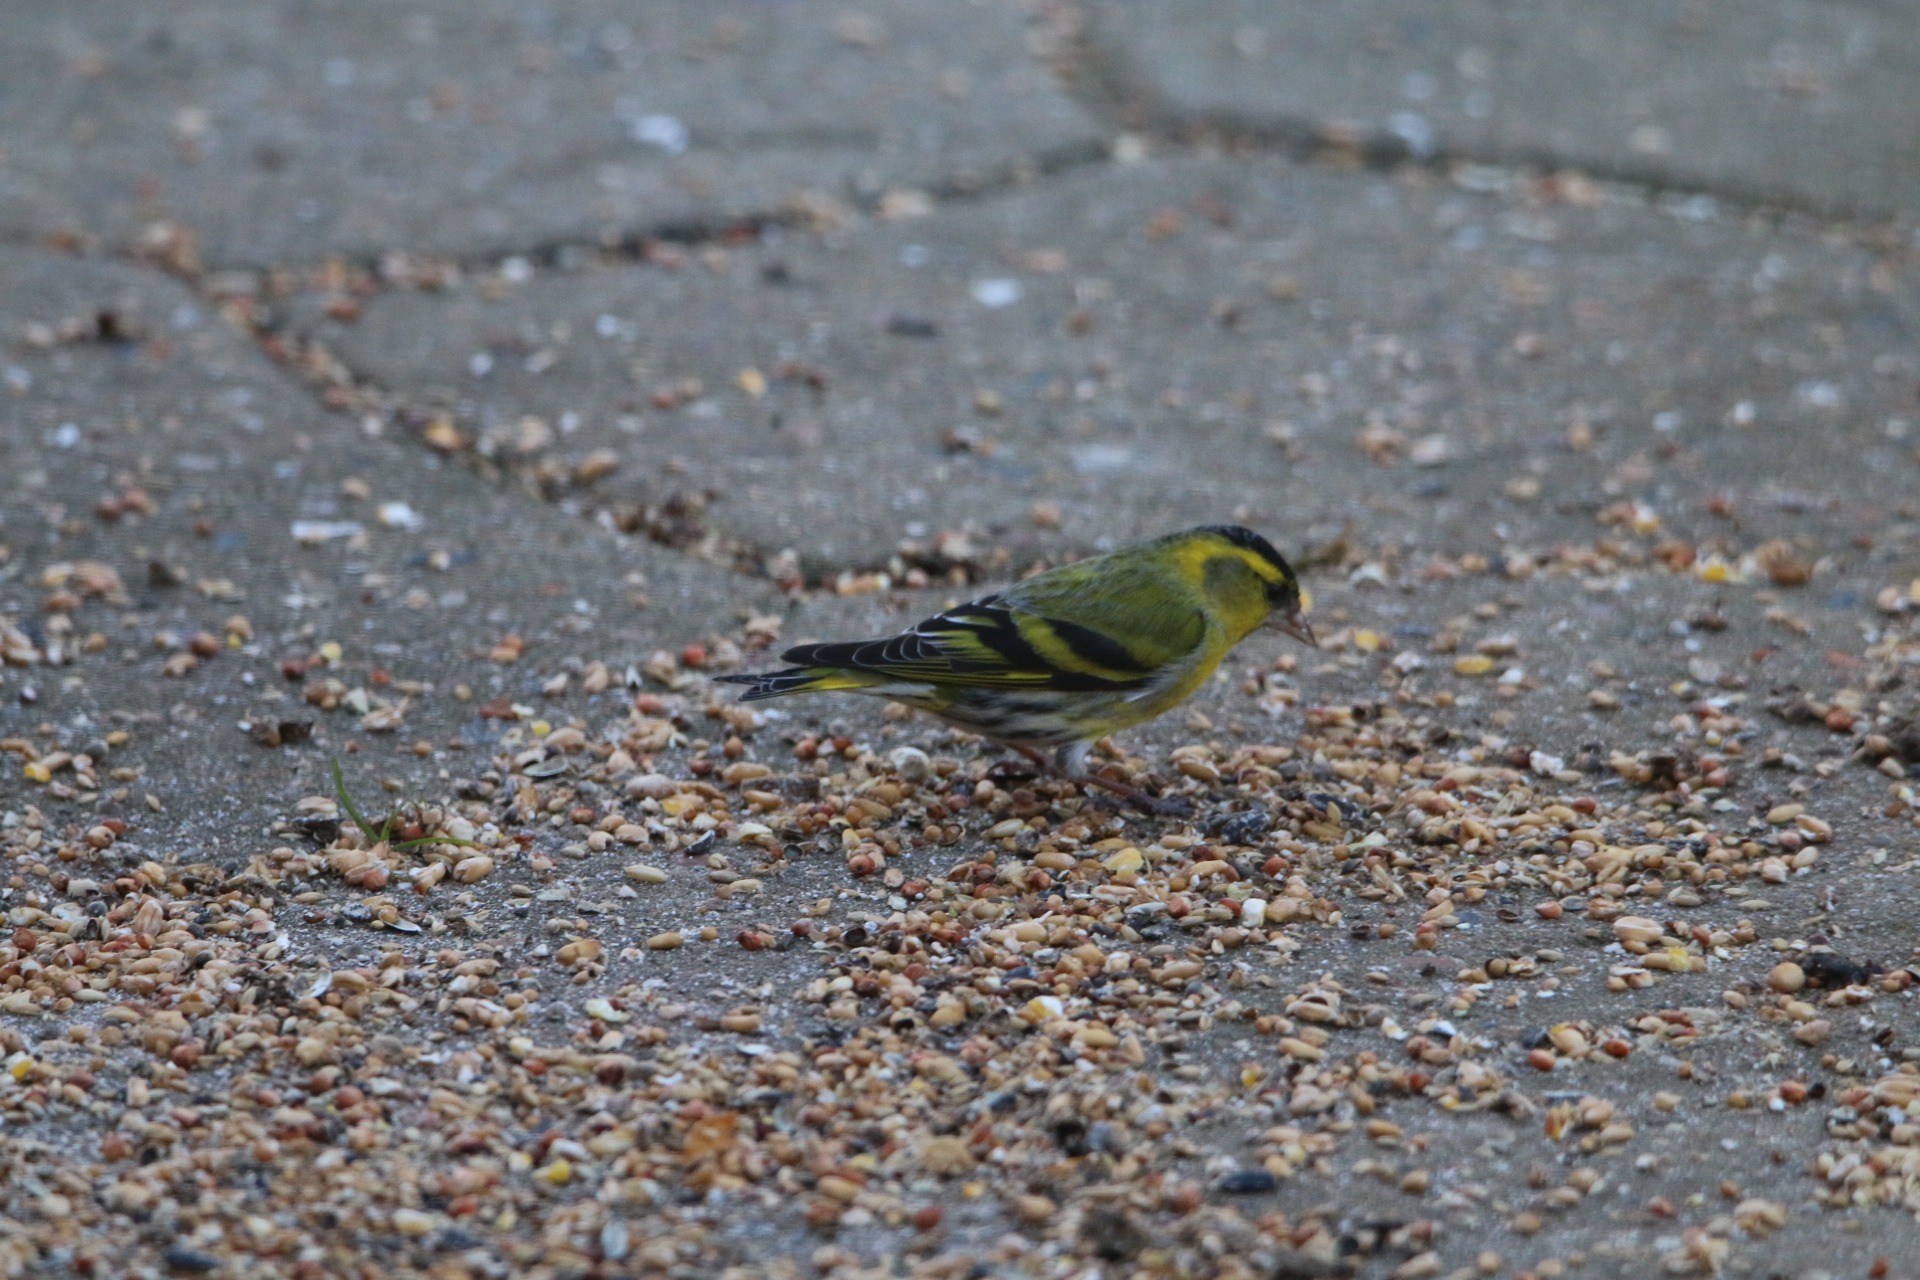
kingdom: Animalia
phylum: Chordata
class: Aves
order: Passeriformes
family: Fringillidae
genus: Spinus
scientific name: Spinus spinus
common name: Grønsisken
